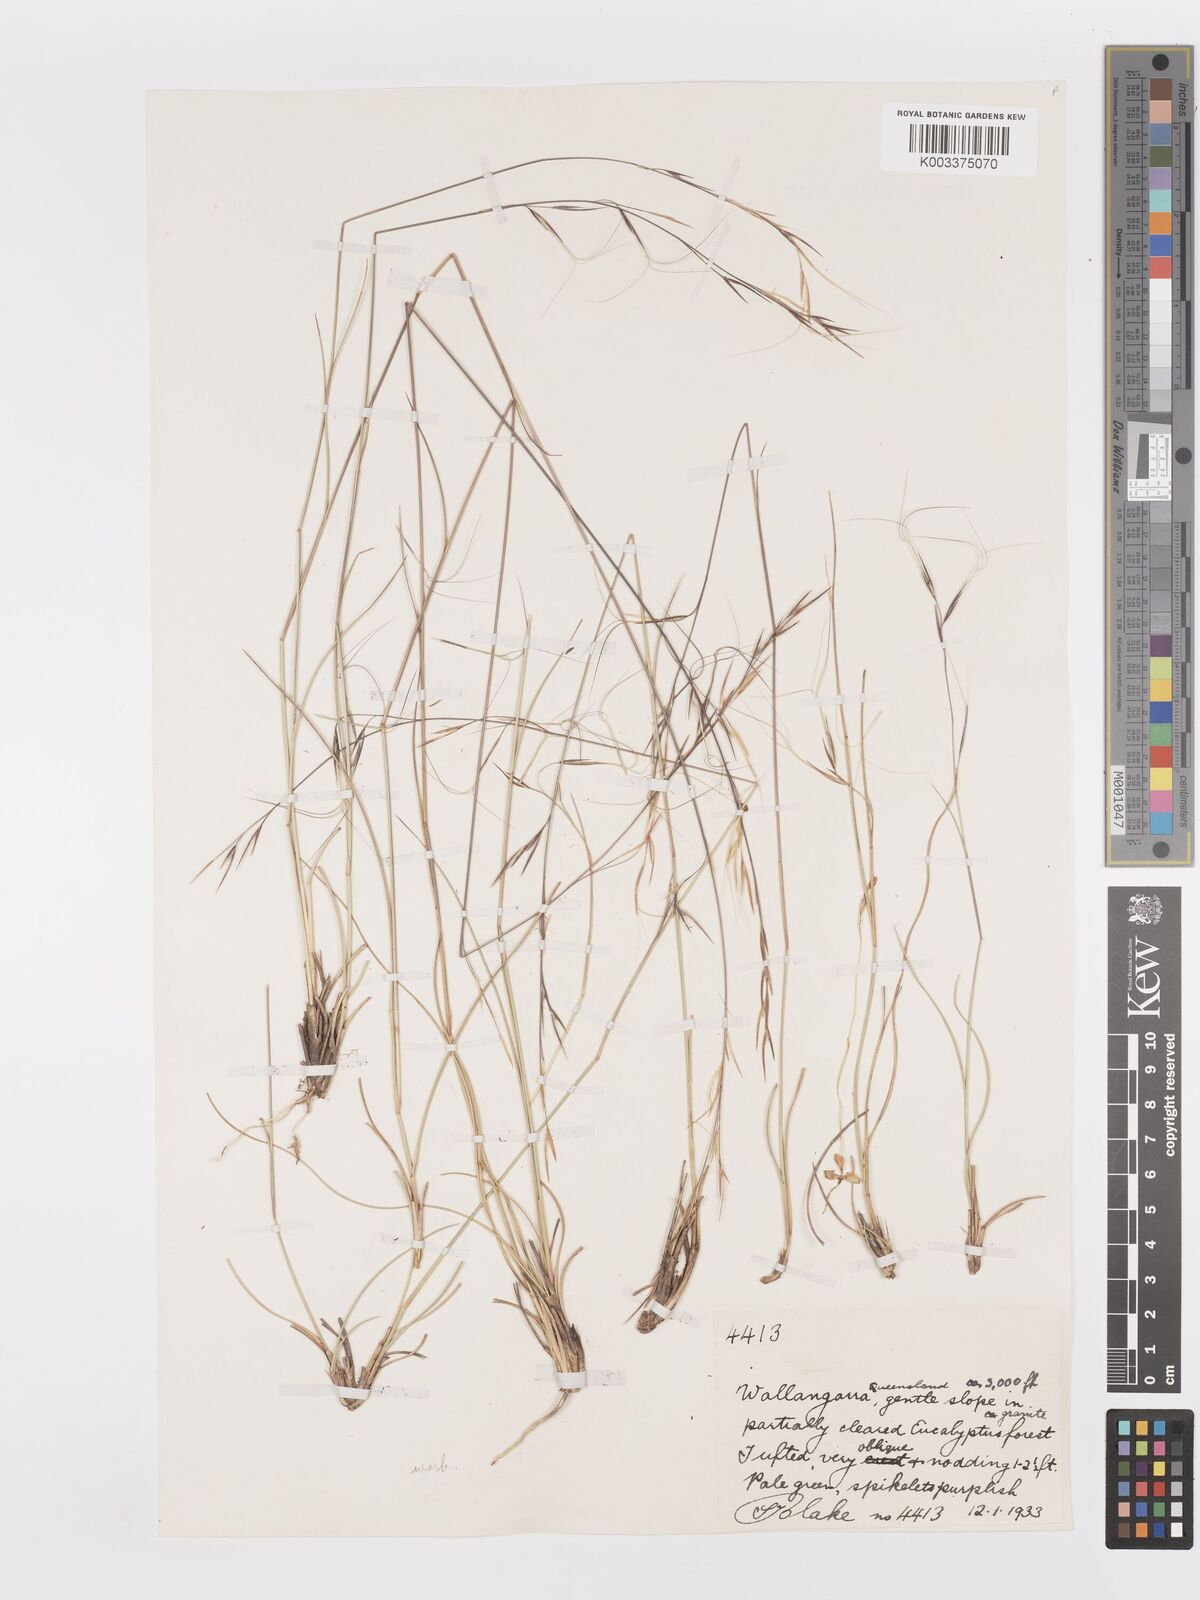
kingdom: Plantae
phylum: Tracheophyta
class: Liliopsida
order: Poales
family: Poaceae
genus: Aristida
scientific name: Aristida warburgii
